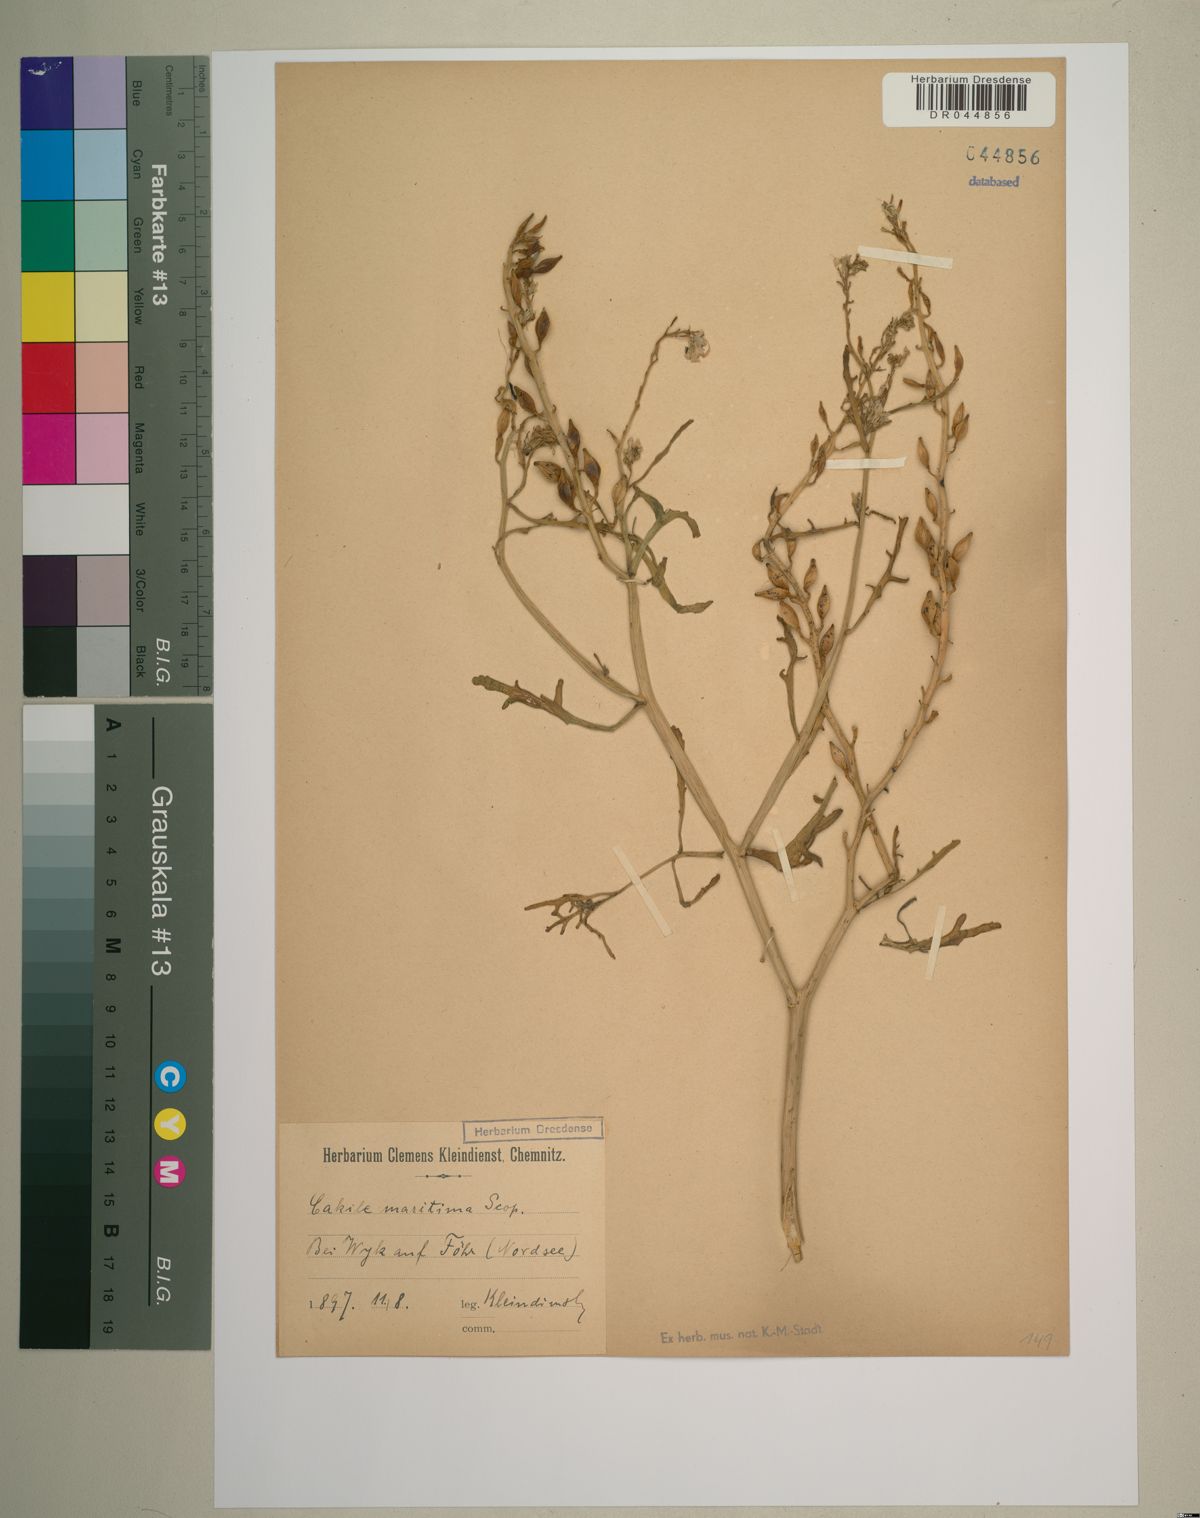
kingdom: Plantae
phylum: Tracheophyta
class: Magnoliopsida
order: Brassicales
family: Brassicaceae
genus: Cakile
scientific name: Cakile maritima
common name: Sea rocket
